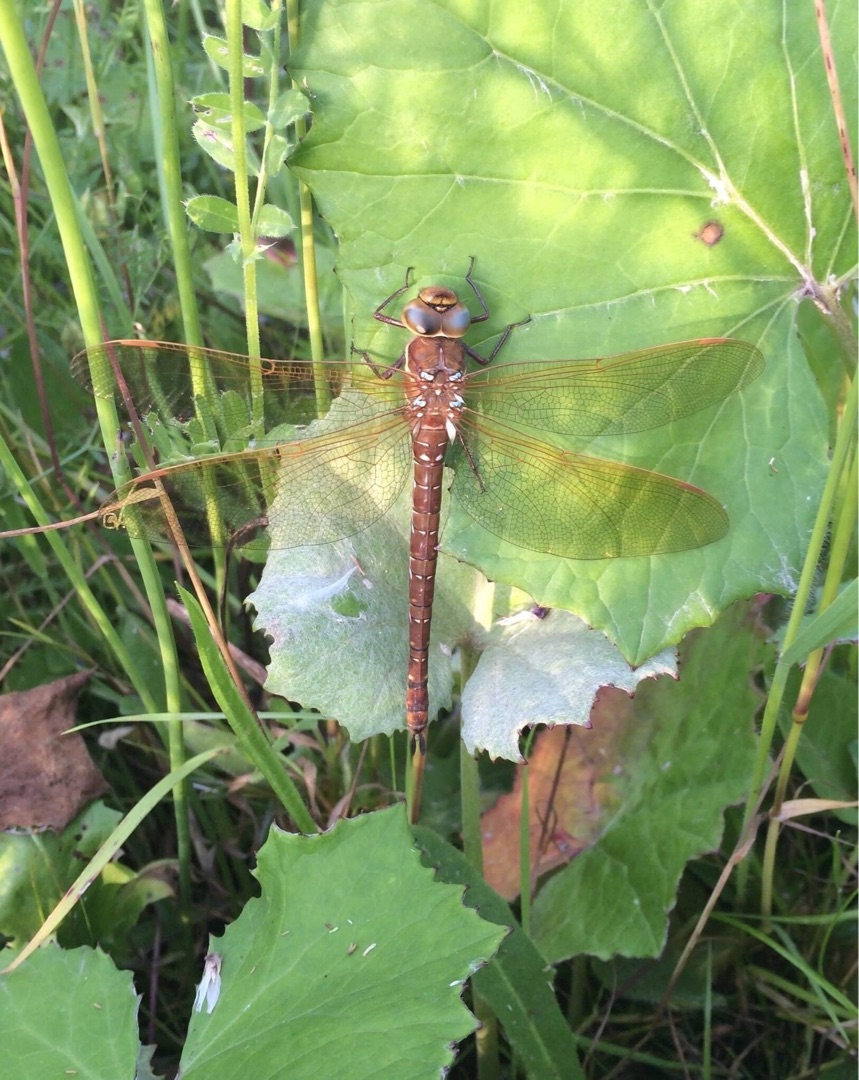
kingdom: Animalia
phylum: Arthropoda
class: Insecta
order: Odonata
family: Aeshnidae
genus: Aeshna
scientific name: Aeshna grandis
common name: Brun mosaikguldsmed
